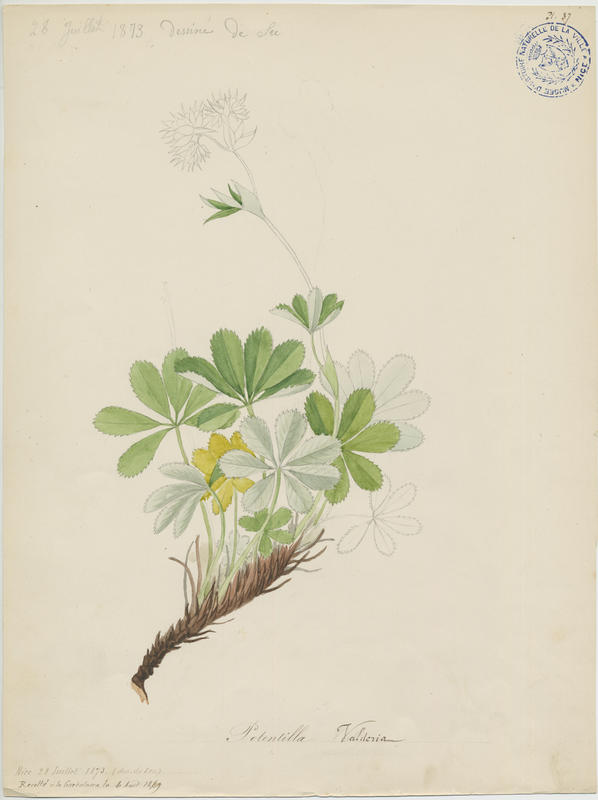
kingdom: Plantae
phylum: Tracheophyta
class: Magnoliopsida
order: Rosales
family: Rosaceae
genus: Potentilla
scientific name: Potentilla valderia
